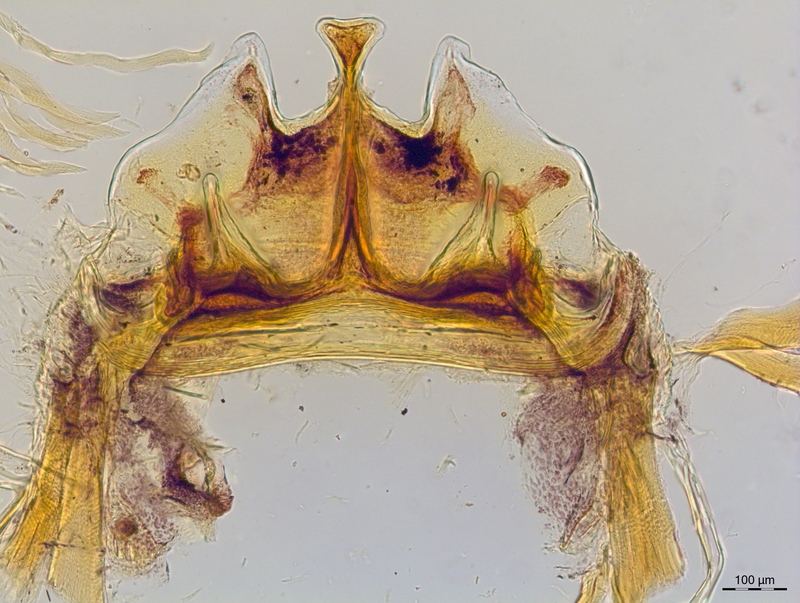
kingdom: Animalia
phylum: Arthropoda
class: Diplopoda
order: Chordeumatida
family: Craspedosomatidae
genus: Craspedosoma
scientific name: Craspedosoma rawlinsii
